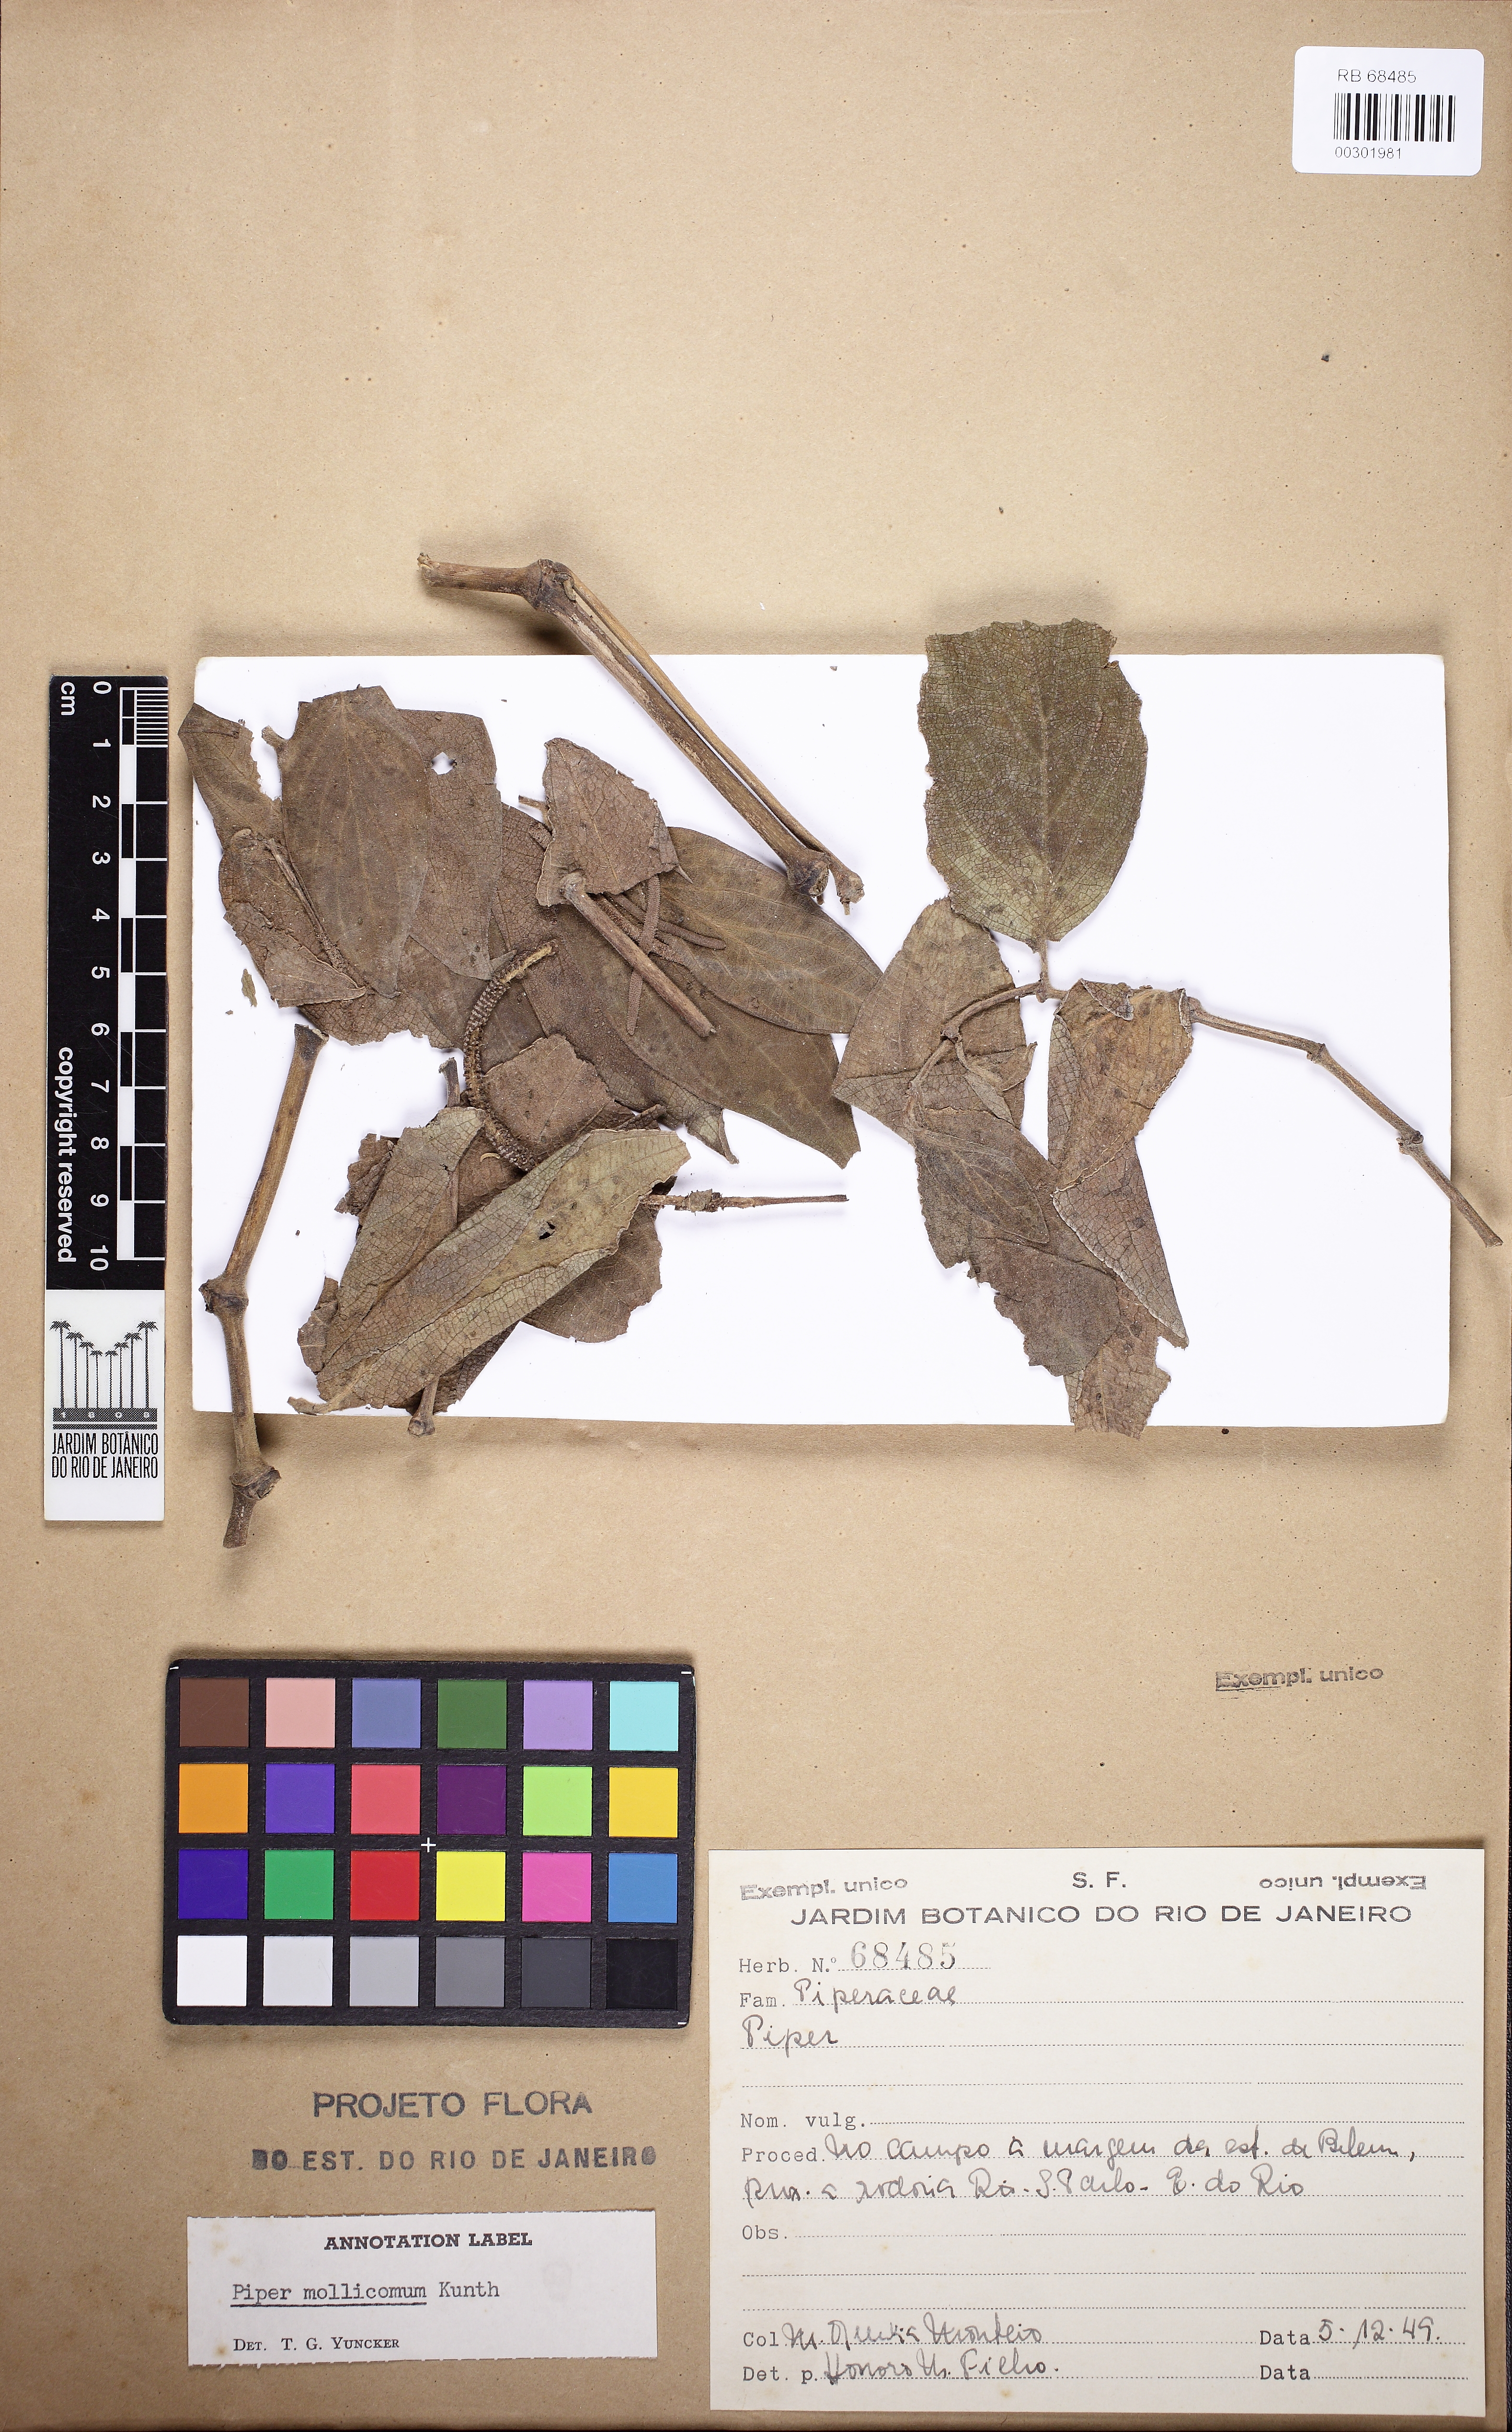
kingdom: Plantae
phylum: Tracheophyta
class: Magnoliopsida
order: Piperales
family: Piperaceae
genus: Piper
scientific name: Piper mollicomum
